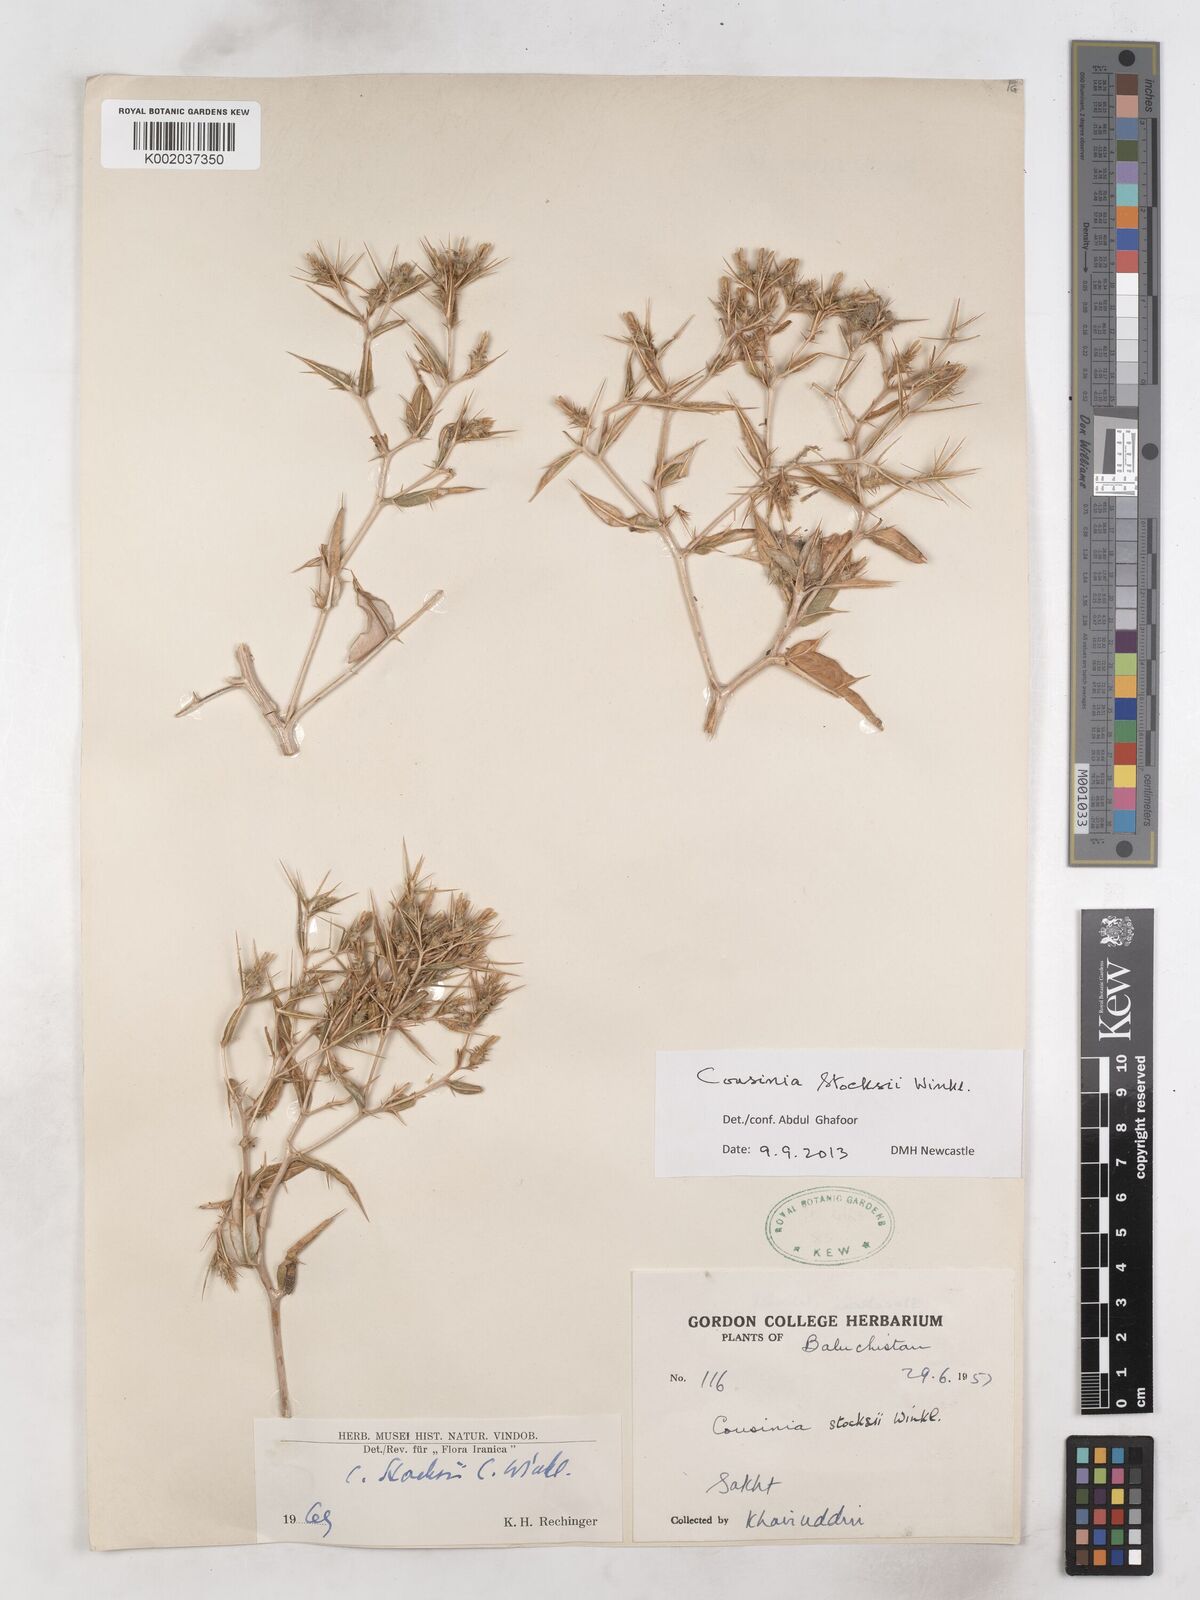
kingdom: Plantae
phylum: Tracheophyta
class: Magnoliopsida
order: Asterales
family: Asteraceae
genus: Cousinia
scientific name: Cousinia stocksii
